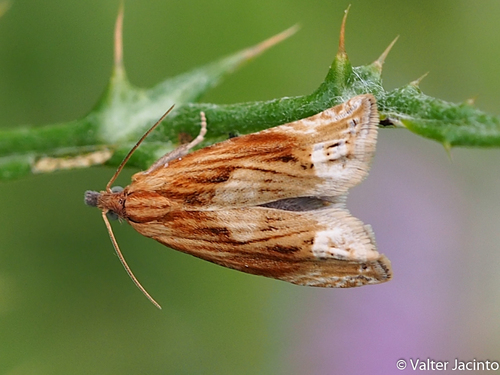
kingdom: Animalia
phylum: Arthropoda
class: Insecta
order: Lepidoptera
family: Tortricidae
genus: Eucosma
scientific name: Eucosma cana
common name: Hoary belle
